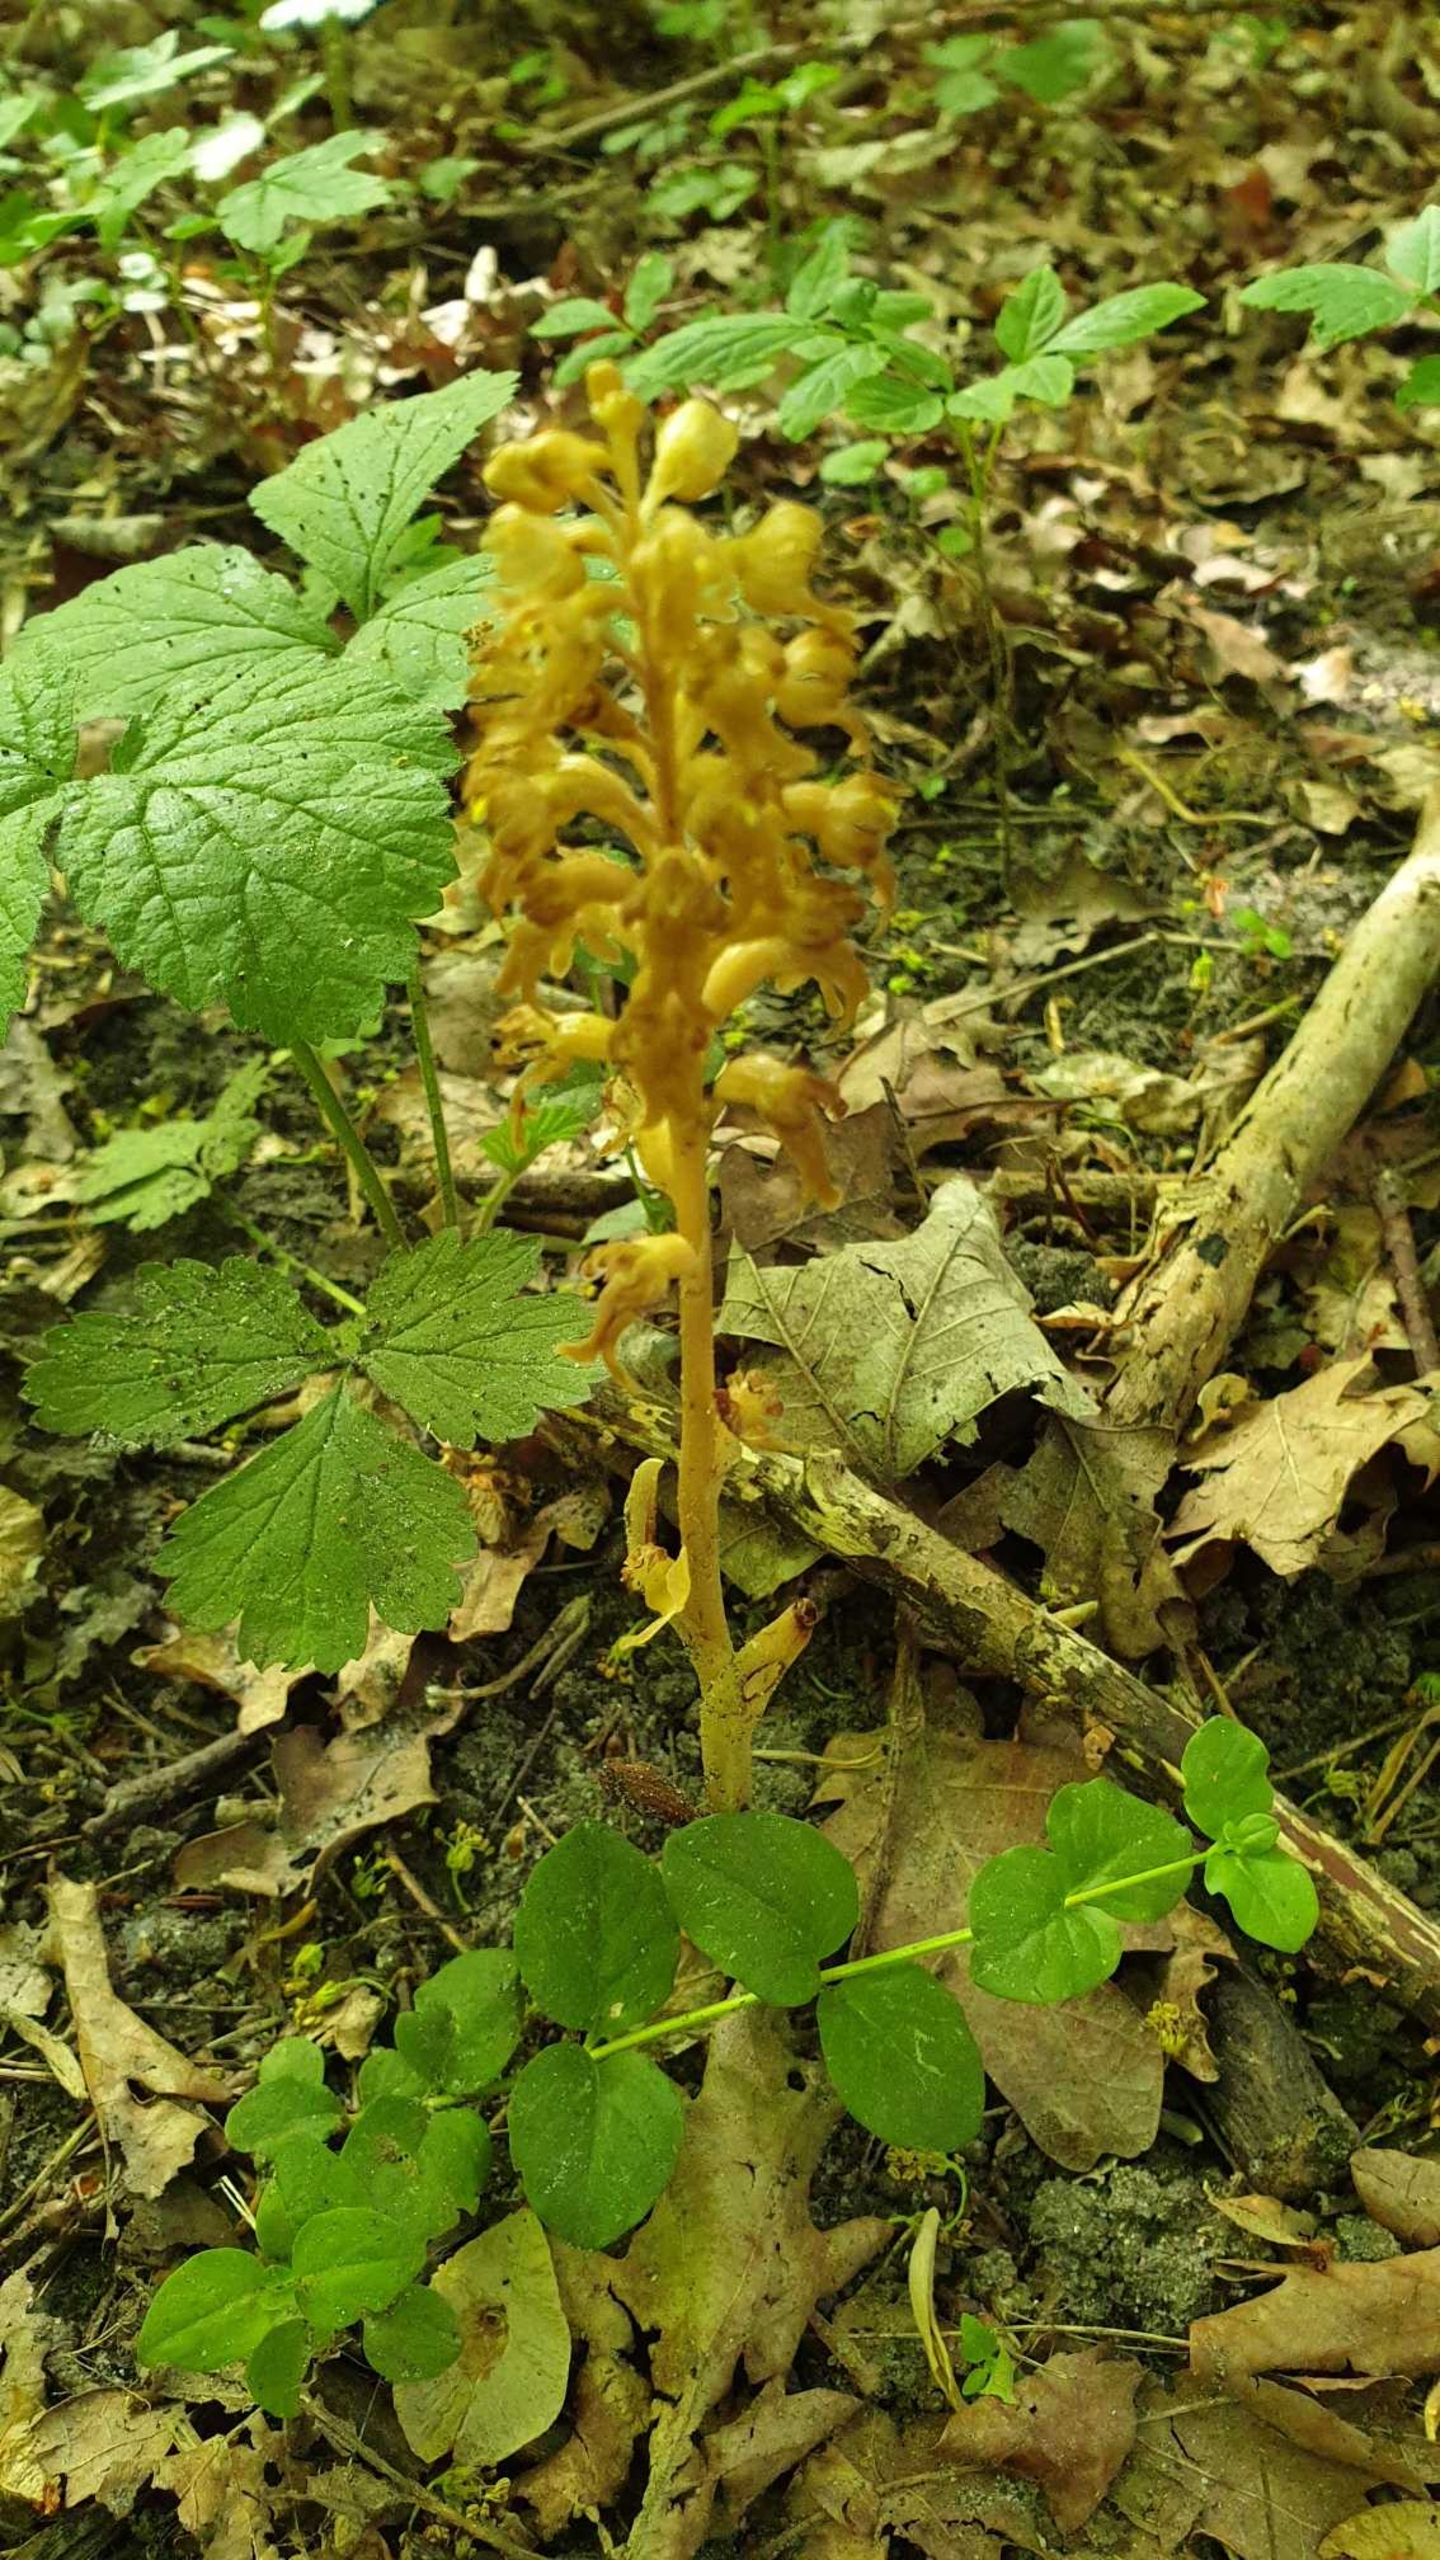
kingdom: Plantae
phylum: Tracheophyta
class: Liliopsida
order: Asparagales
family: Orchidaceae
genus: Neottia
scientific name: Neottia nidus-avis
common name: Rederod
